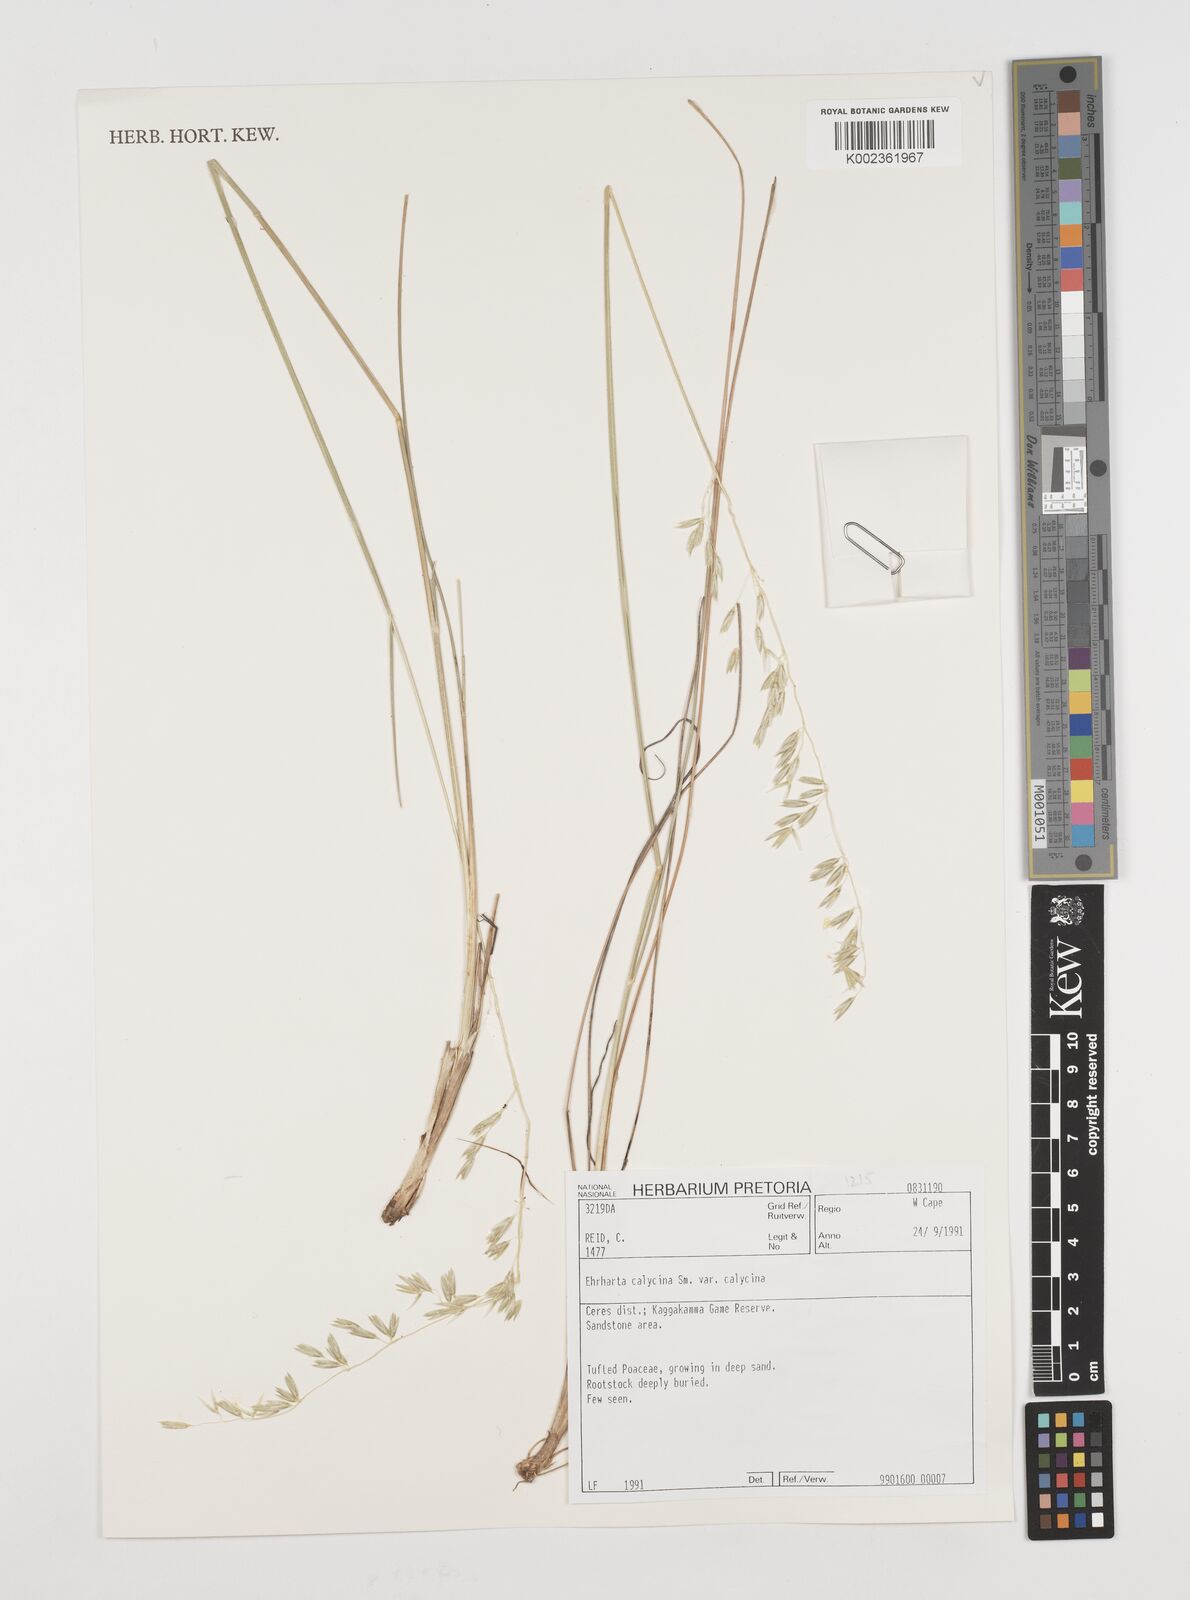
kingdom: Plantae
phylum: Tracheophyta
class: Liliopsida
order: Poales
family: Poaceae
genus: Ehrharta
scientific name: Ehrharta calycina
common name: Perennial veldtgrass
